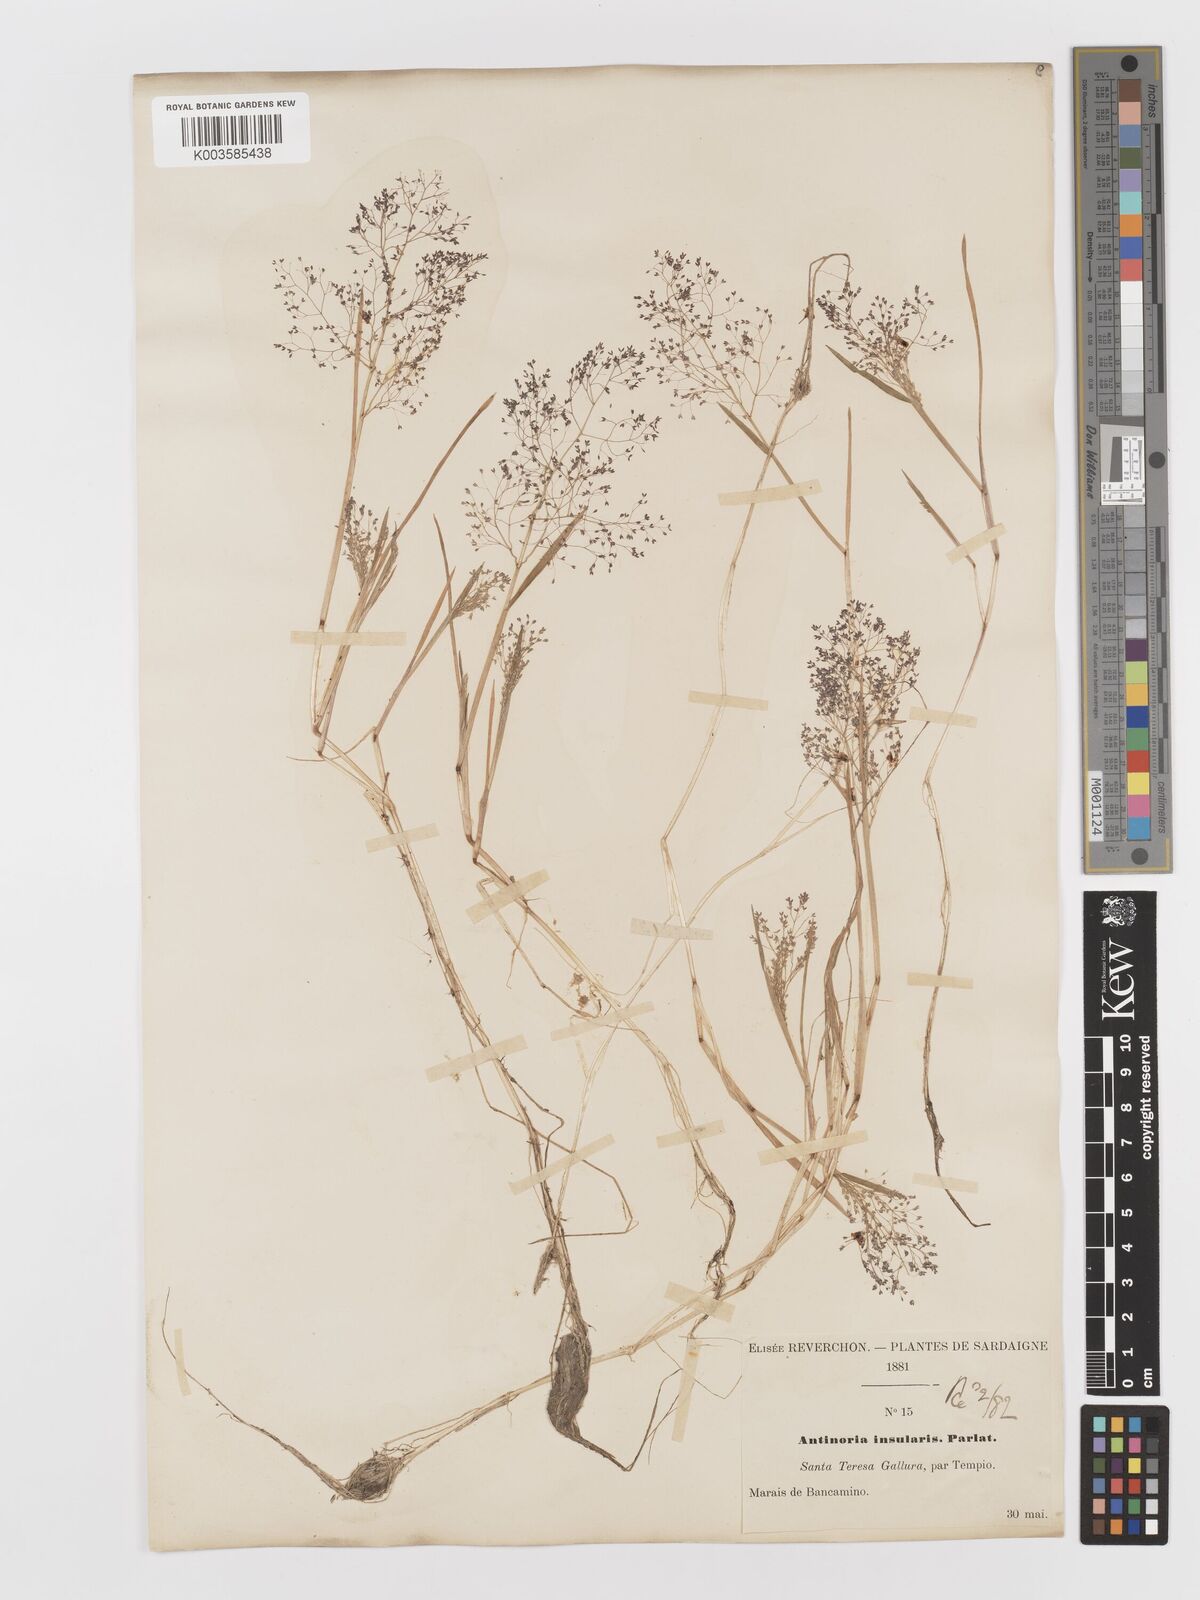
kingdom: Plantae
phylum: Tracheophyta
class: Liliopsida
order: Poales
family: Poaceae
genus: Antinoria
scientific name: Antinoria insularis
